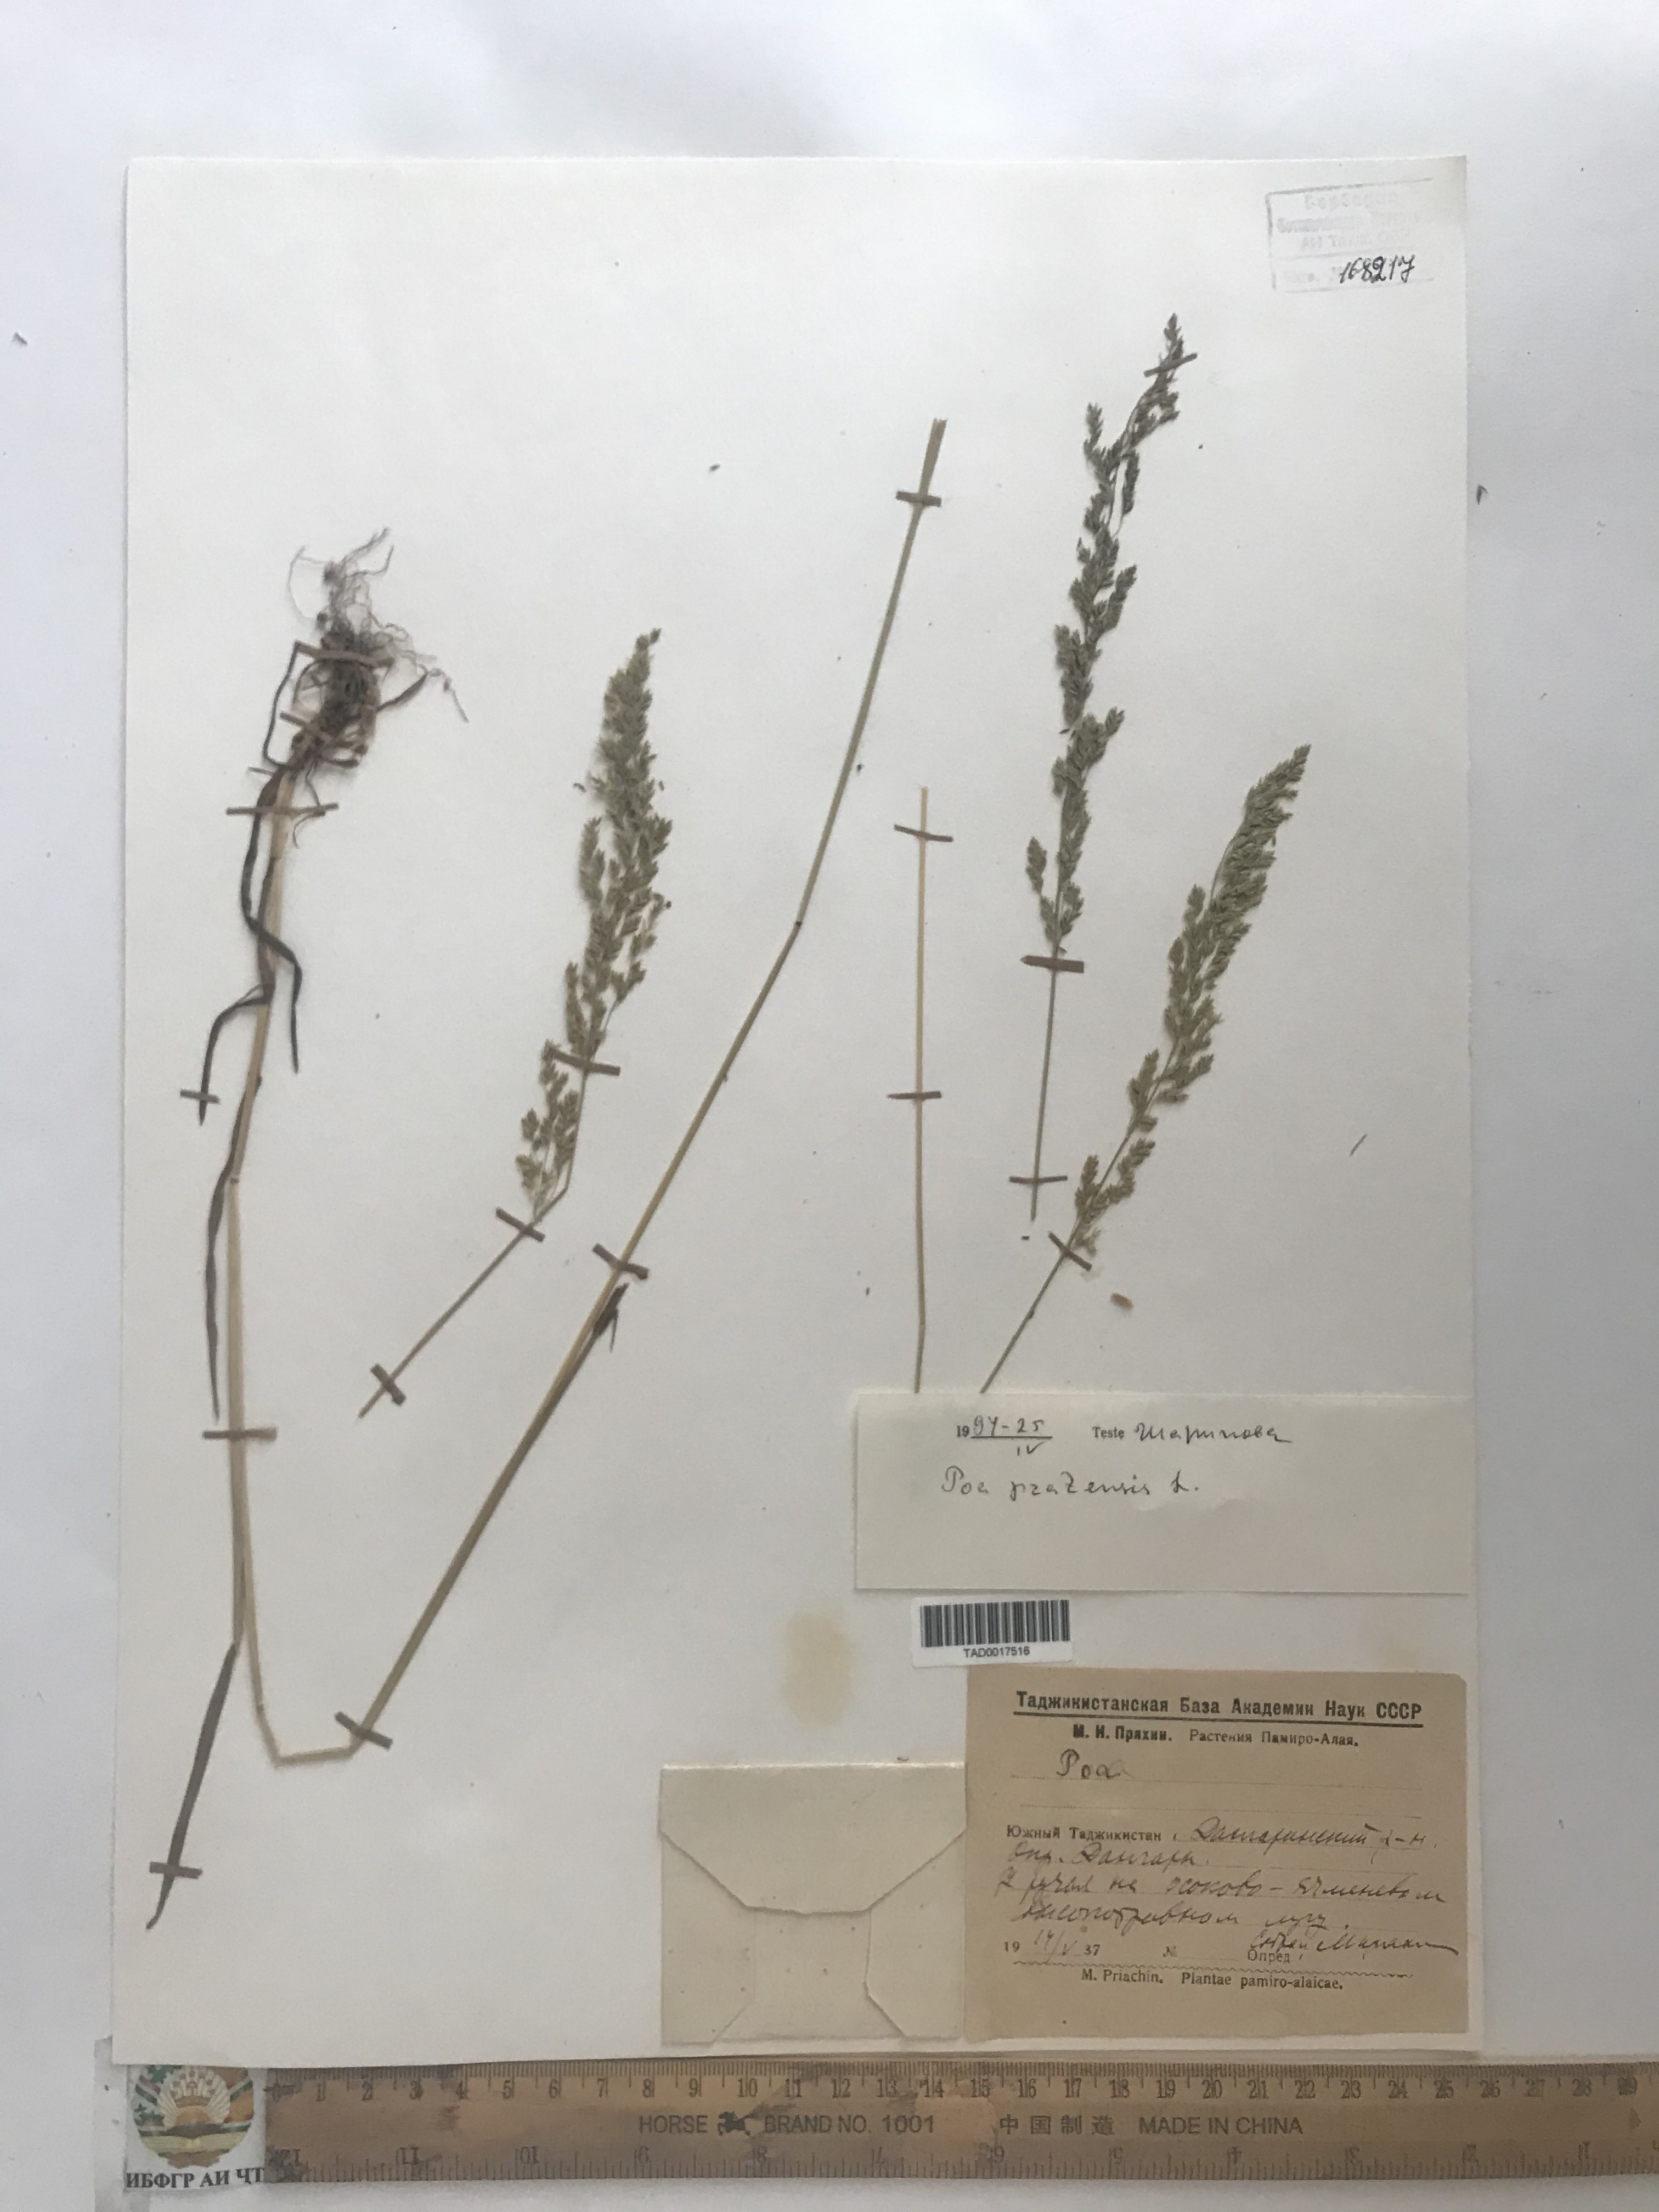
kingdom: Plantae
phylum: Tracheophyta
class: Liliopsida
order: Poales
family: Poaceae
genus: Poa
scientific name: Poa pratensis
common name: Kentucky bluegrass
